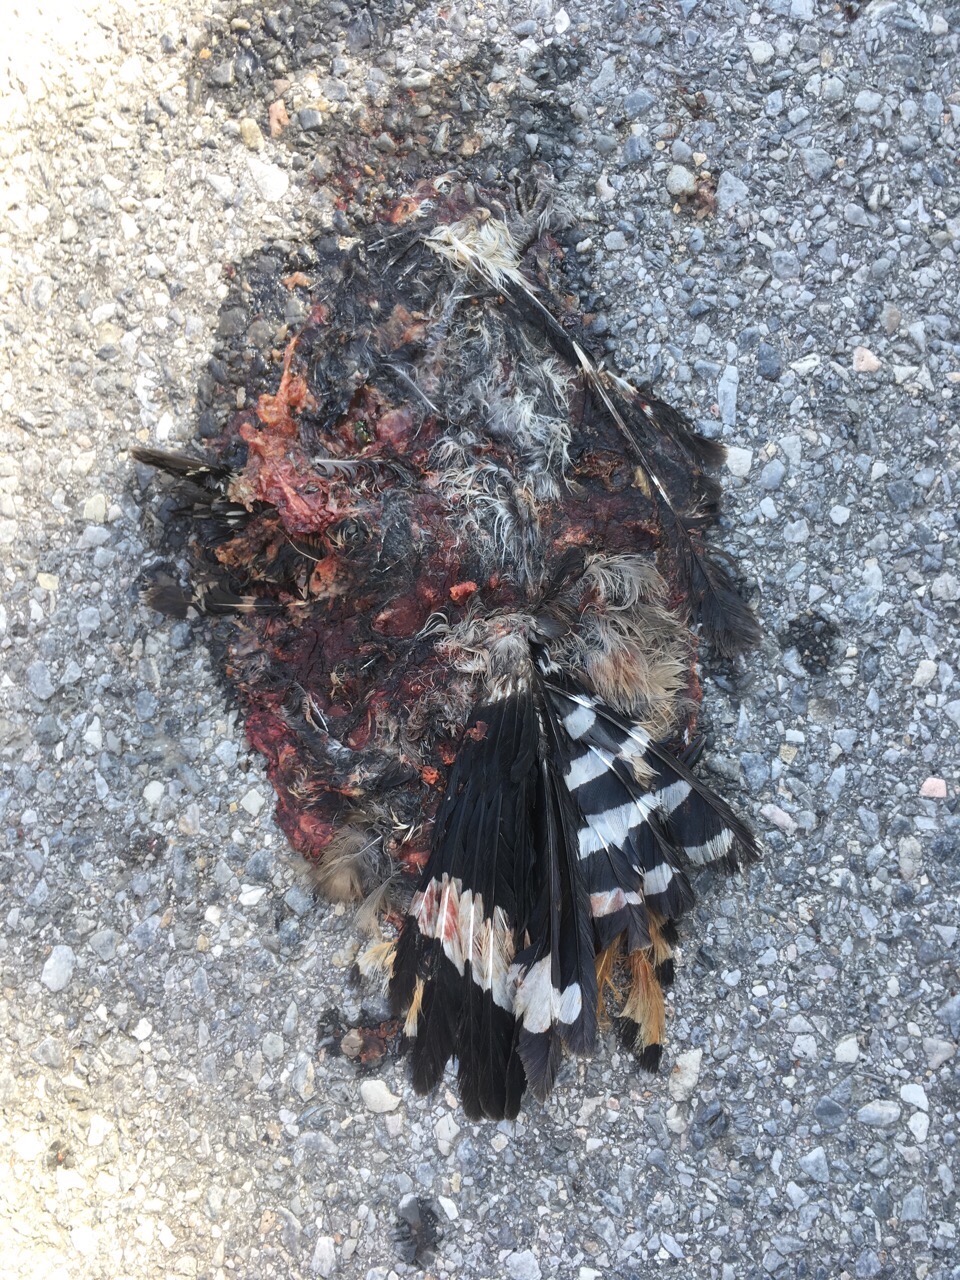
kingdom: Animalia
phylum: Chordata
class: Aves
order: Bucerotiformes
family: Upupidae
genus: Upupa
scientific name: Upupa epops
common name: Eurasian hoopoe
